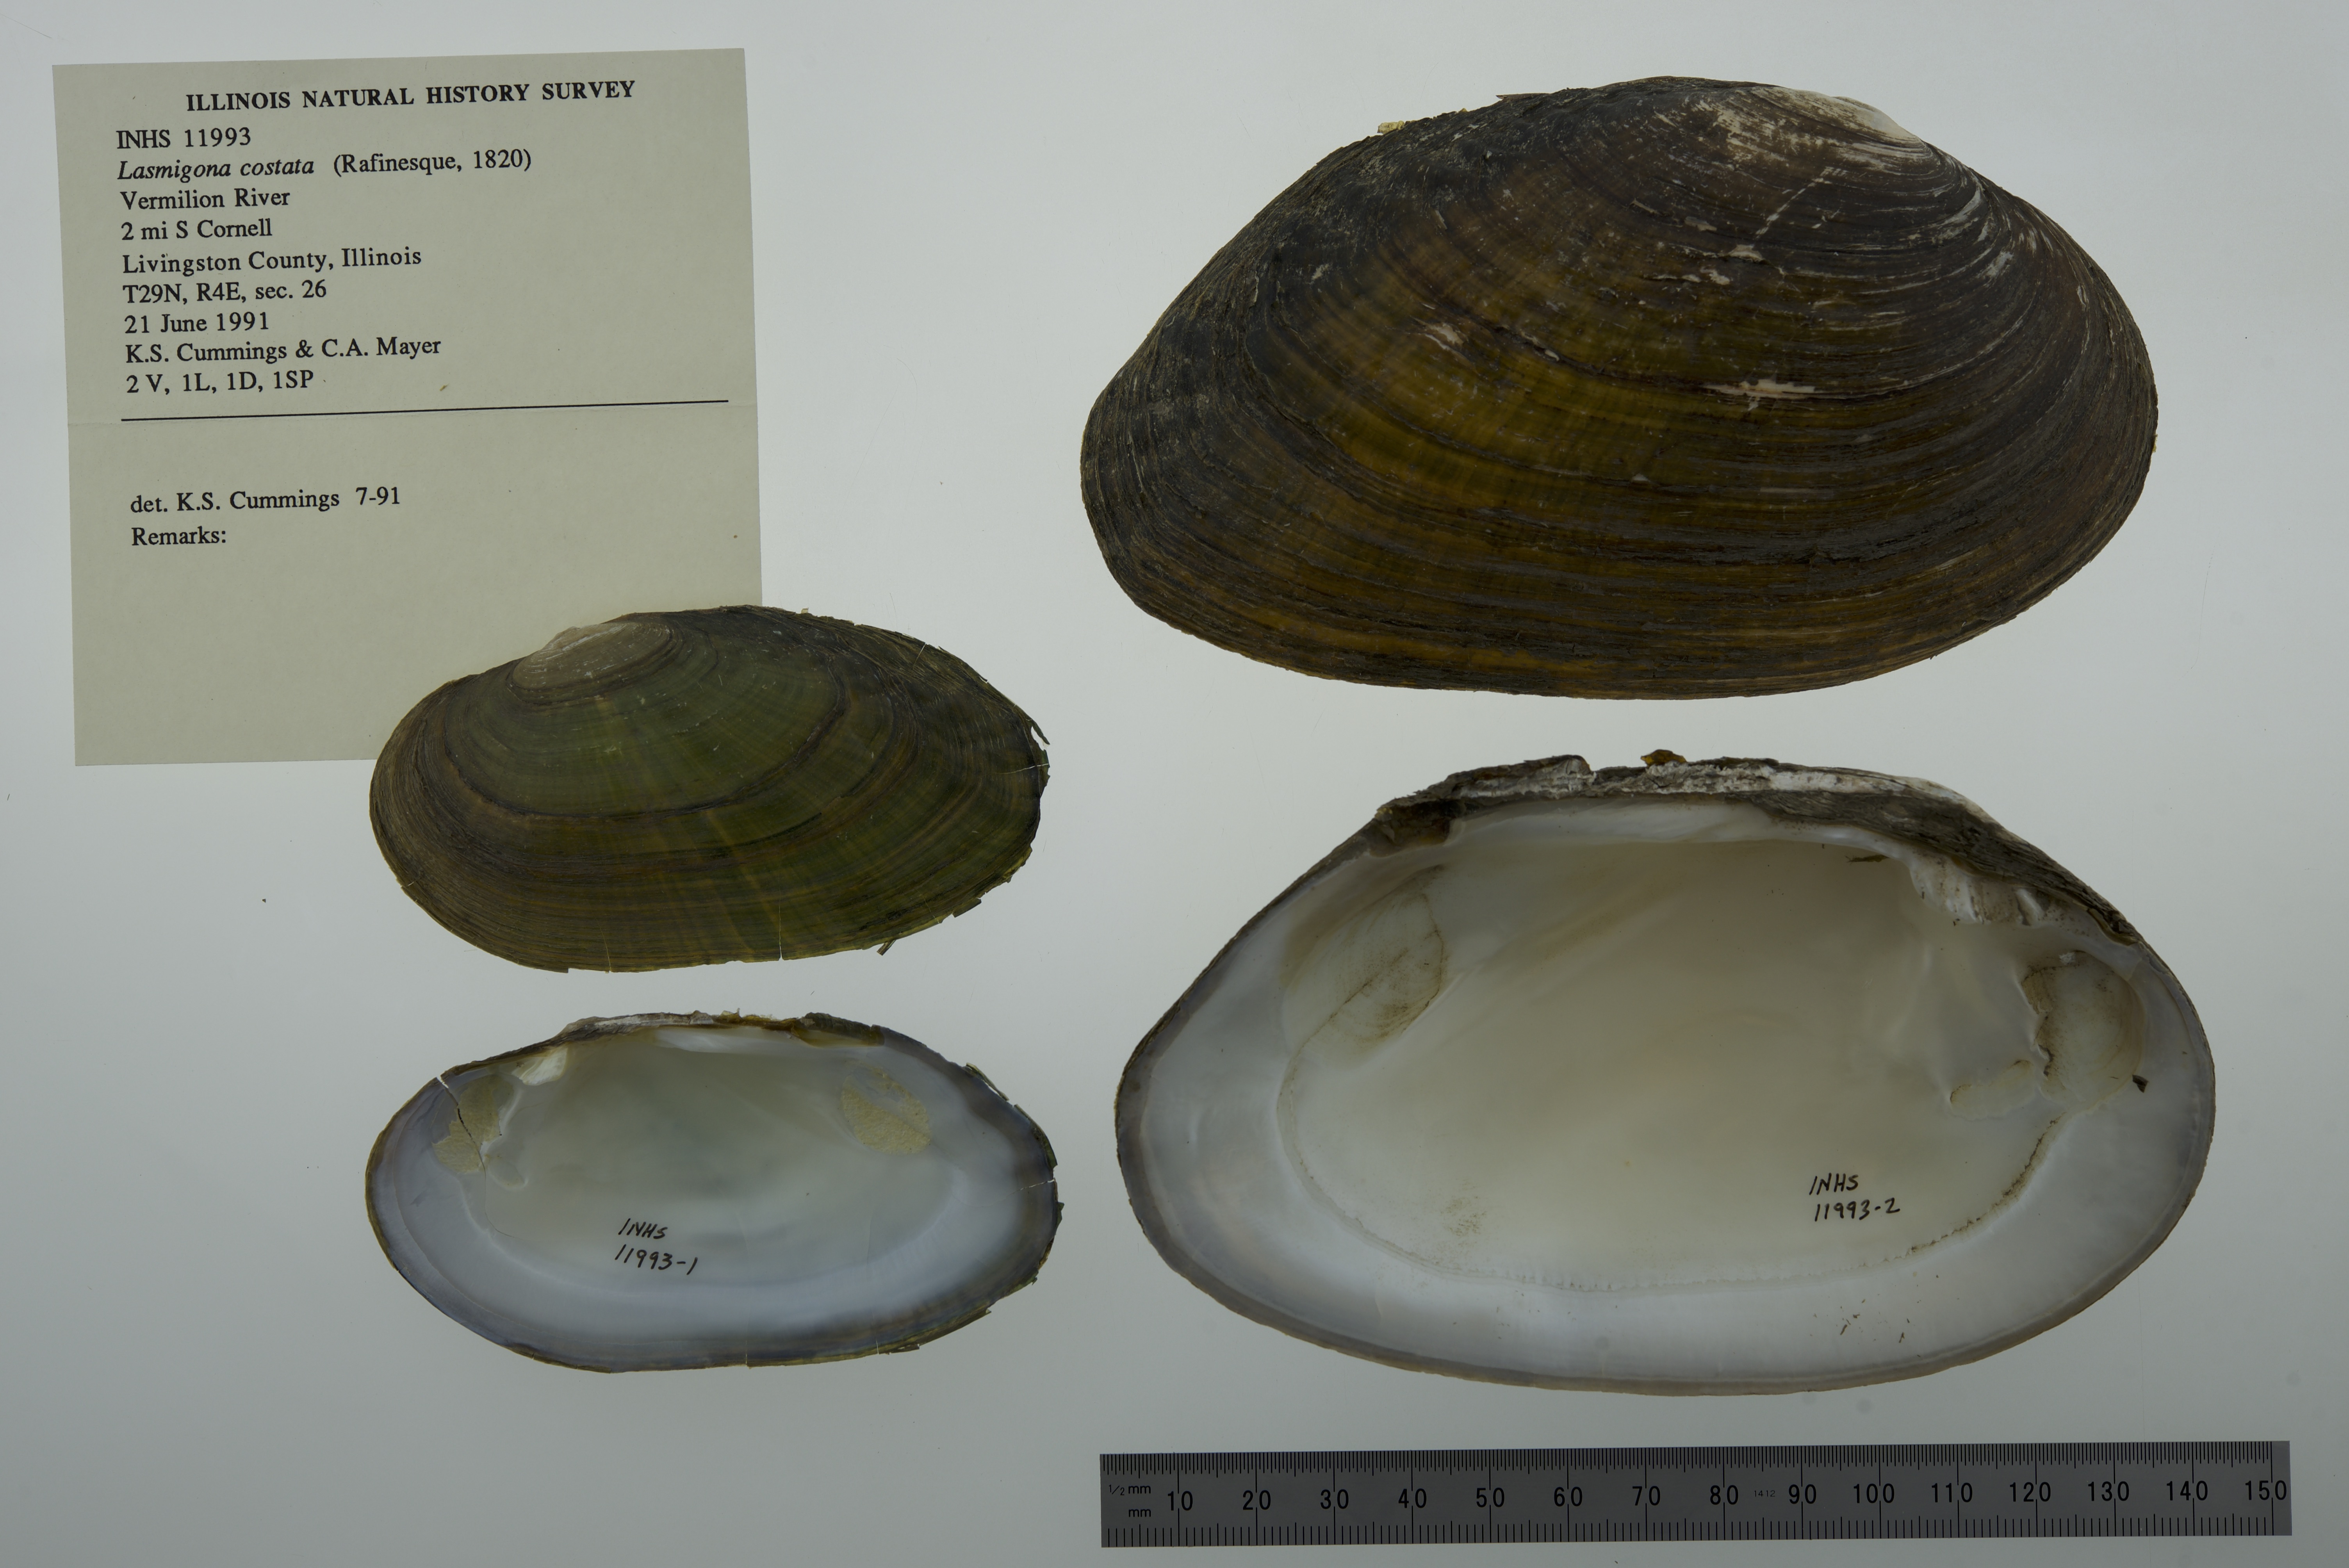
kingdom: Animalia
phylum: Mollusca
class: Bivalvia
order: Unionida
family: Unionidae
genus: Lasmigona
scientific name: Lasmigona costata
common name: Flutedshell
